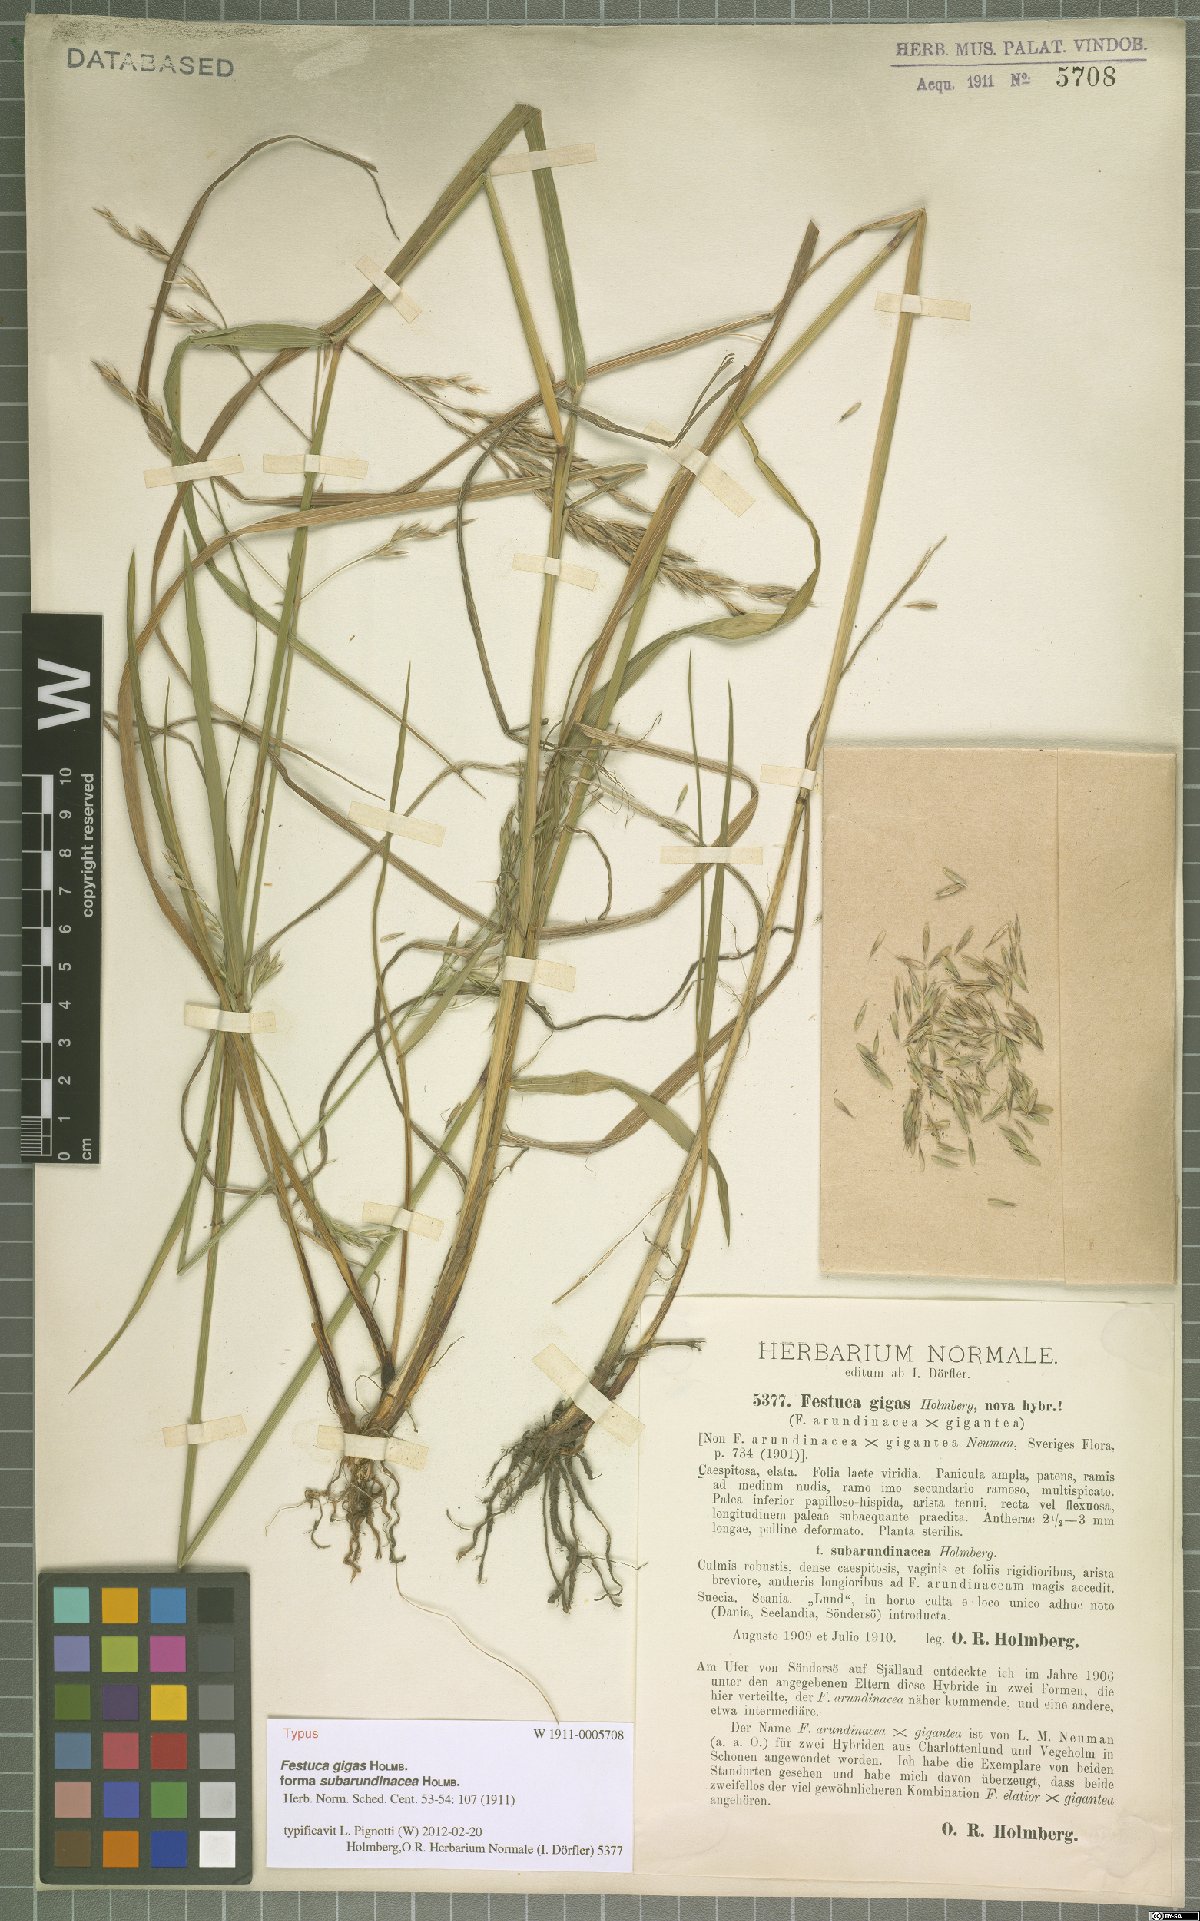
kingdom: Plantae
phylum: Tracheophyta
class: Liliopsida
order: Poales
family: Poaceae
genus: Lolium
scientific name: Lolium fleischeri
